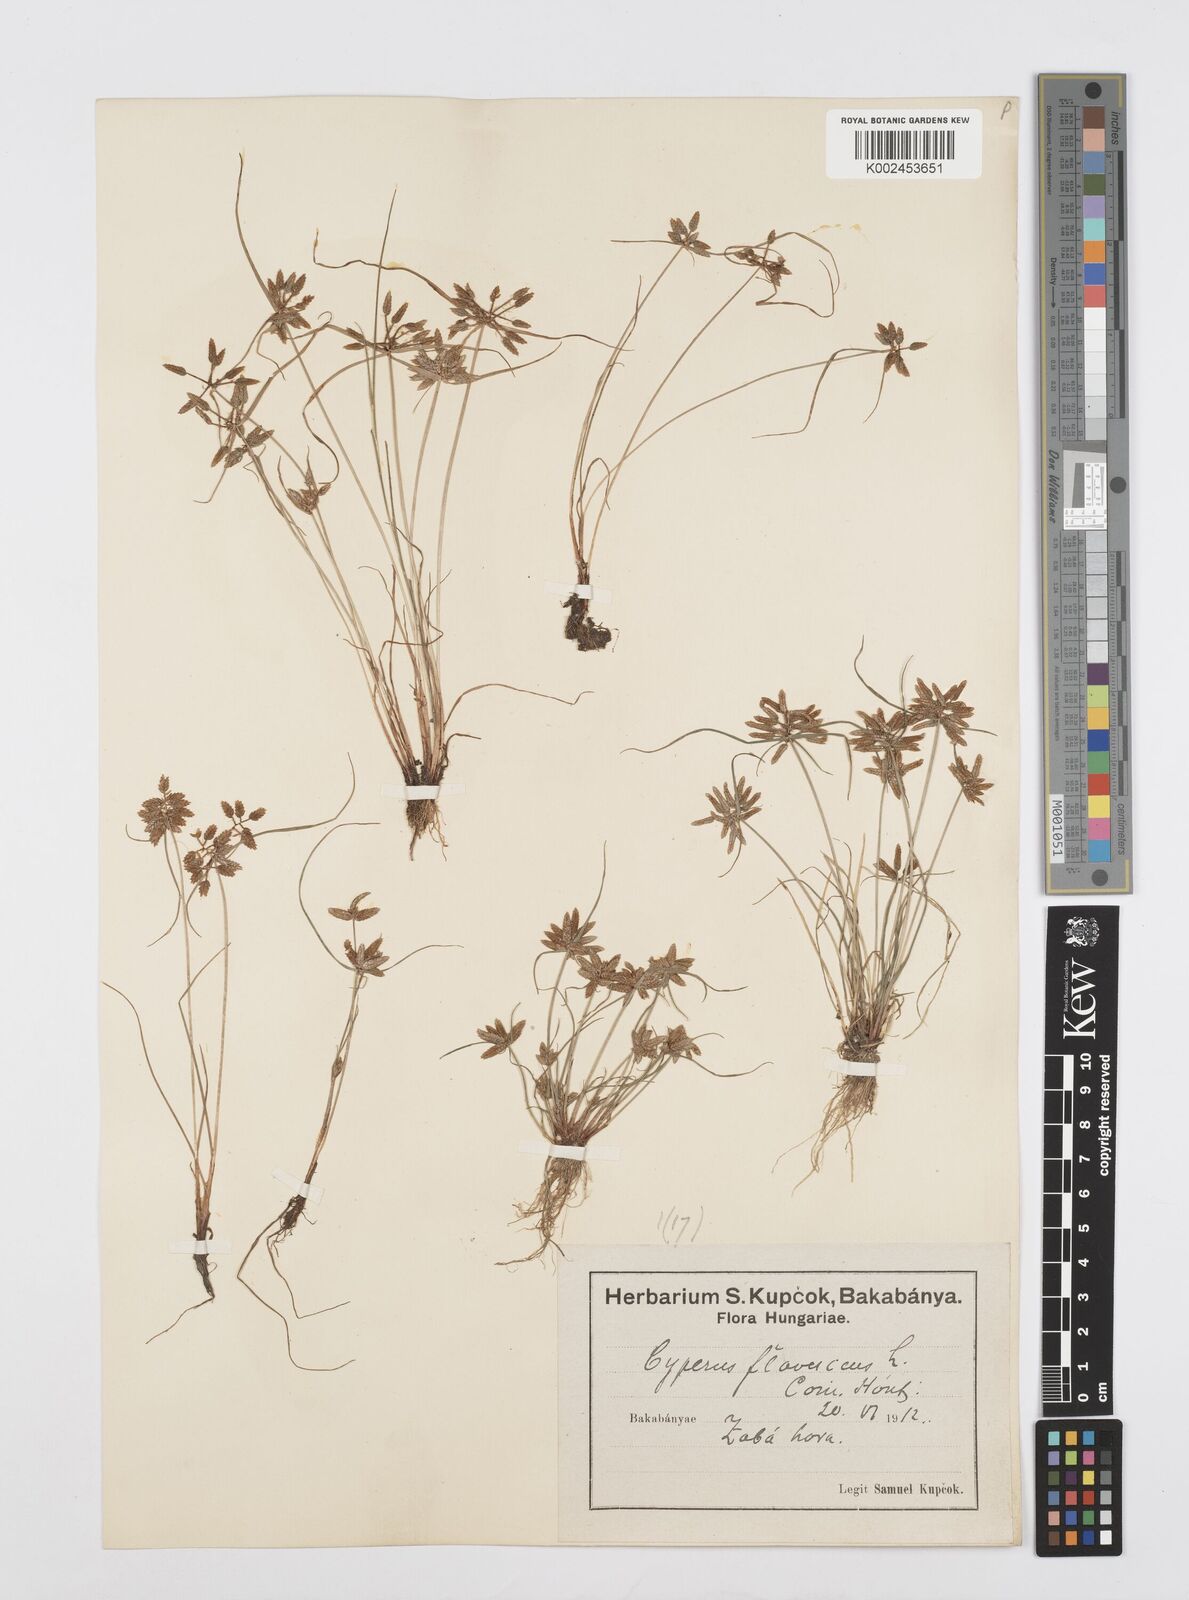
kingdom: Plantae
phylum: Tracheophyta
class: Liliopsida
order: Poales
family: Cyperaceae
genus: Cyperus
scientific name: Cyperus flavescens
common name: Yellow galingale
